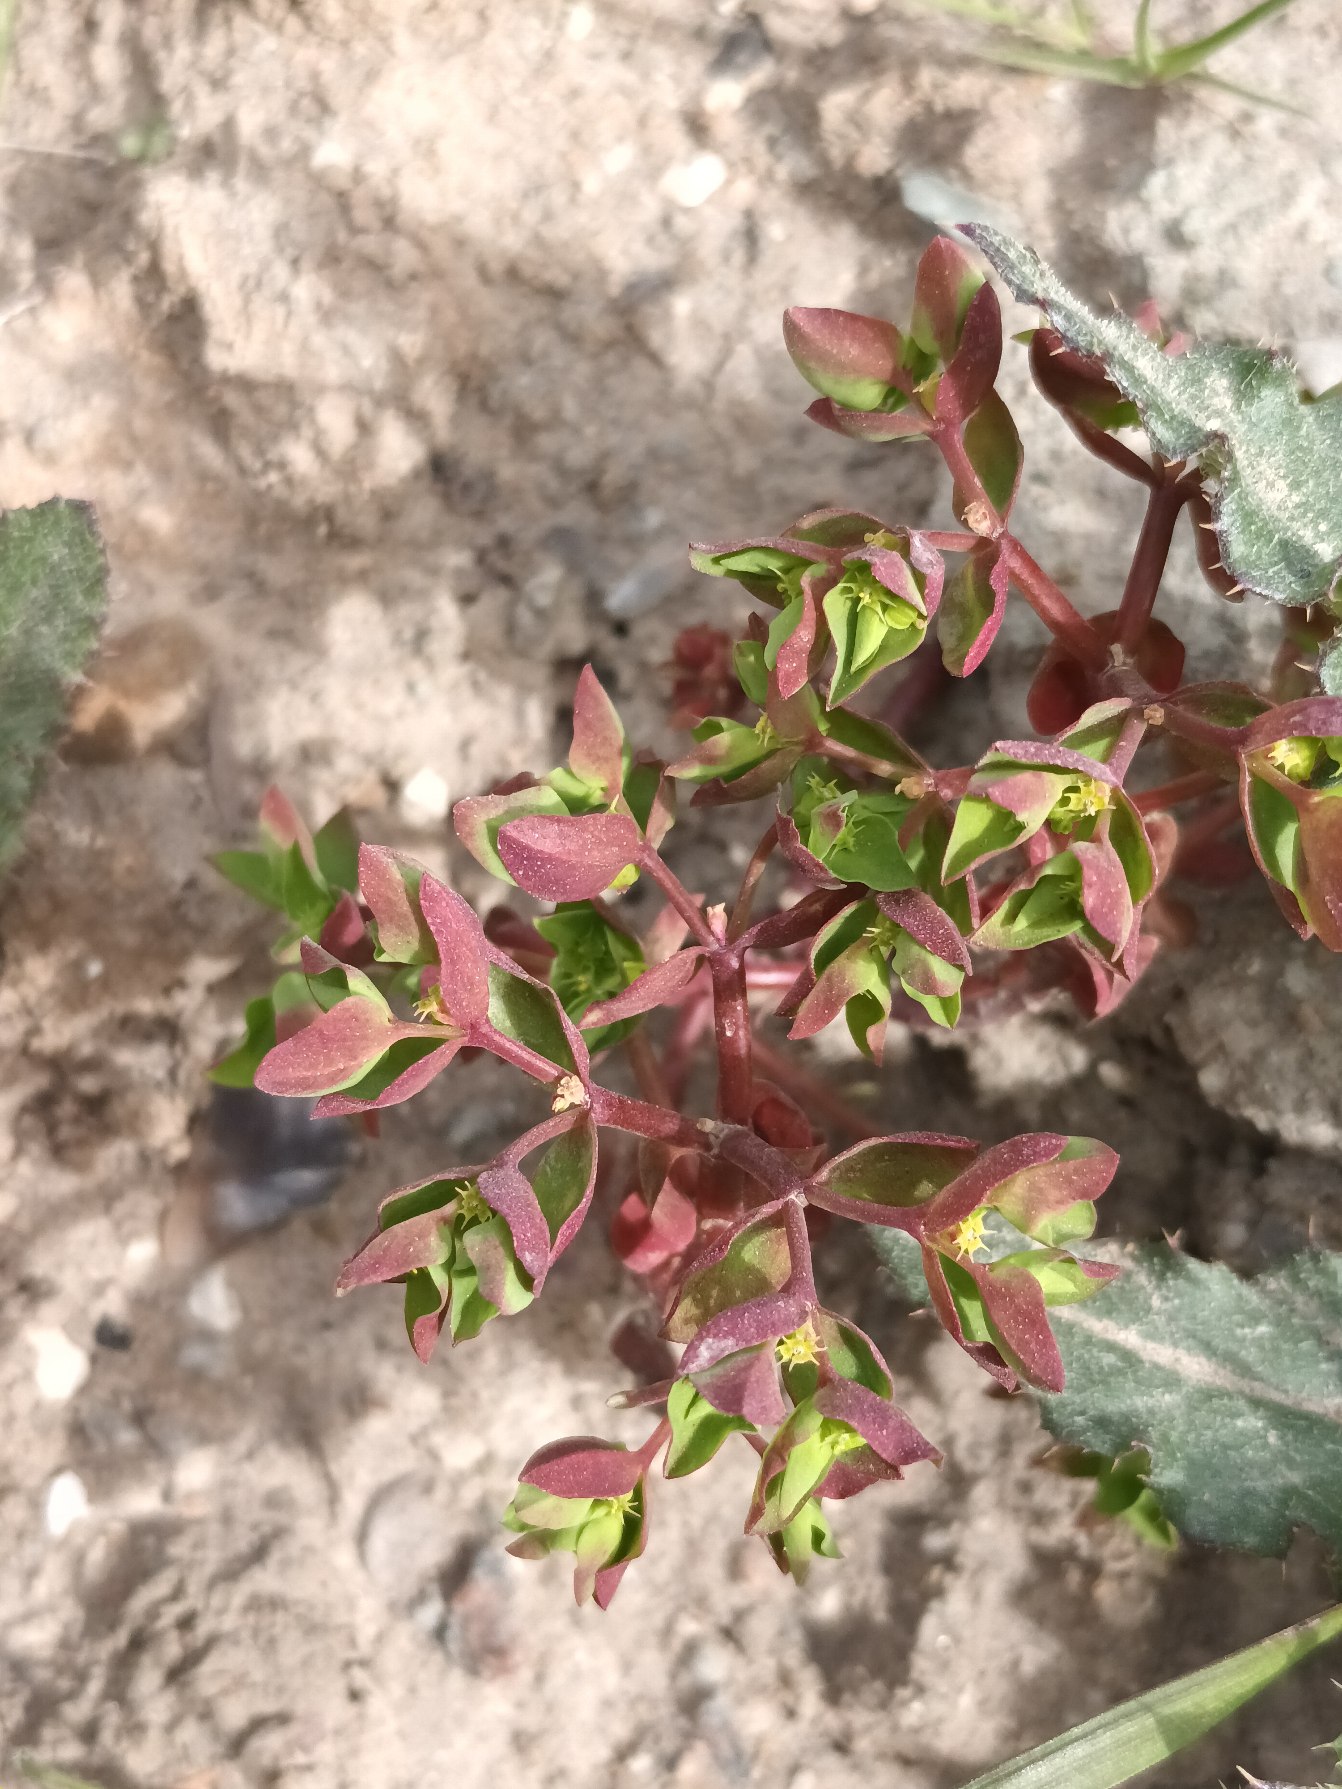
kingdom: Plantae
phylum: Tracheophyta
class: Magnoliopsida
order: Malpighiales
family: Euphorbiaceae
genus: Euphorbia
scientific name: Euphorbia peplus
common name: Gaffel-vortemælk
